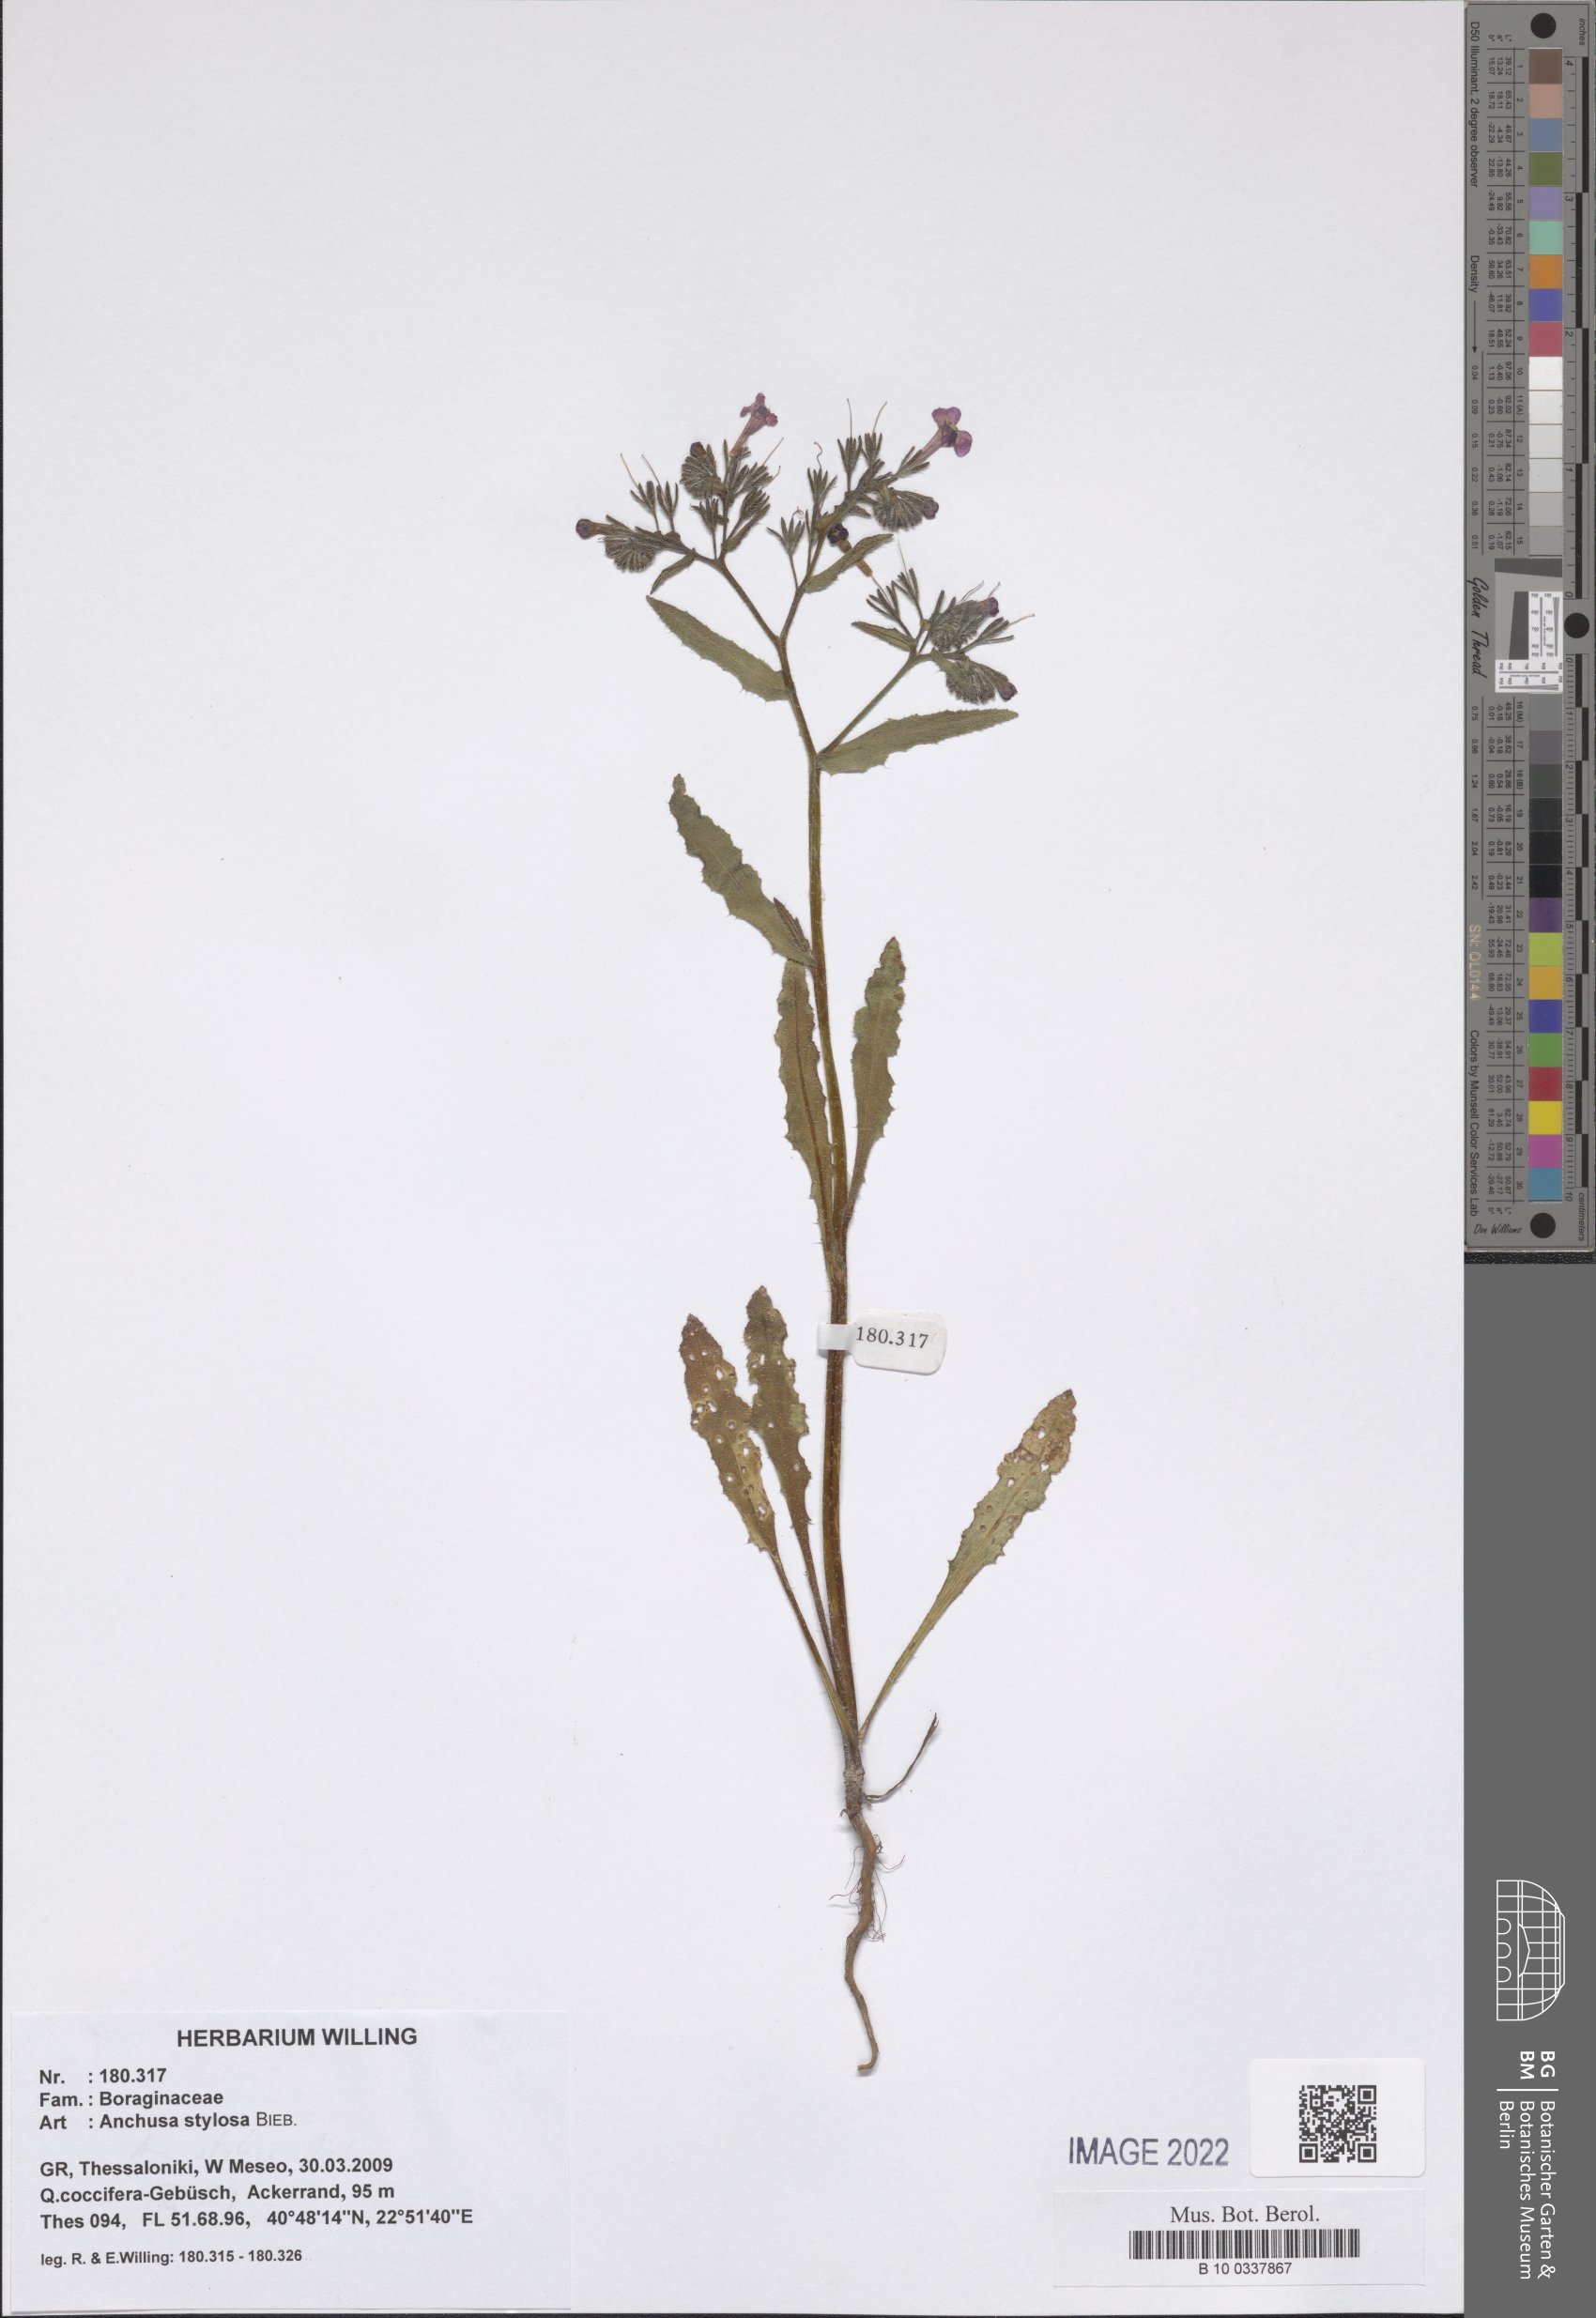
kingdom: Plantae
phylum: Tracheophyta
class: Magnoliopsida
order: Boraginales
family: Boraginaceae
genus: Anchusa
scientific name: Anchusa stylosa
